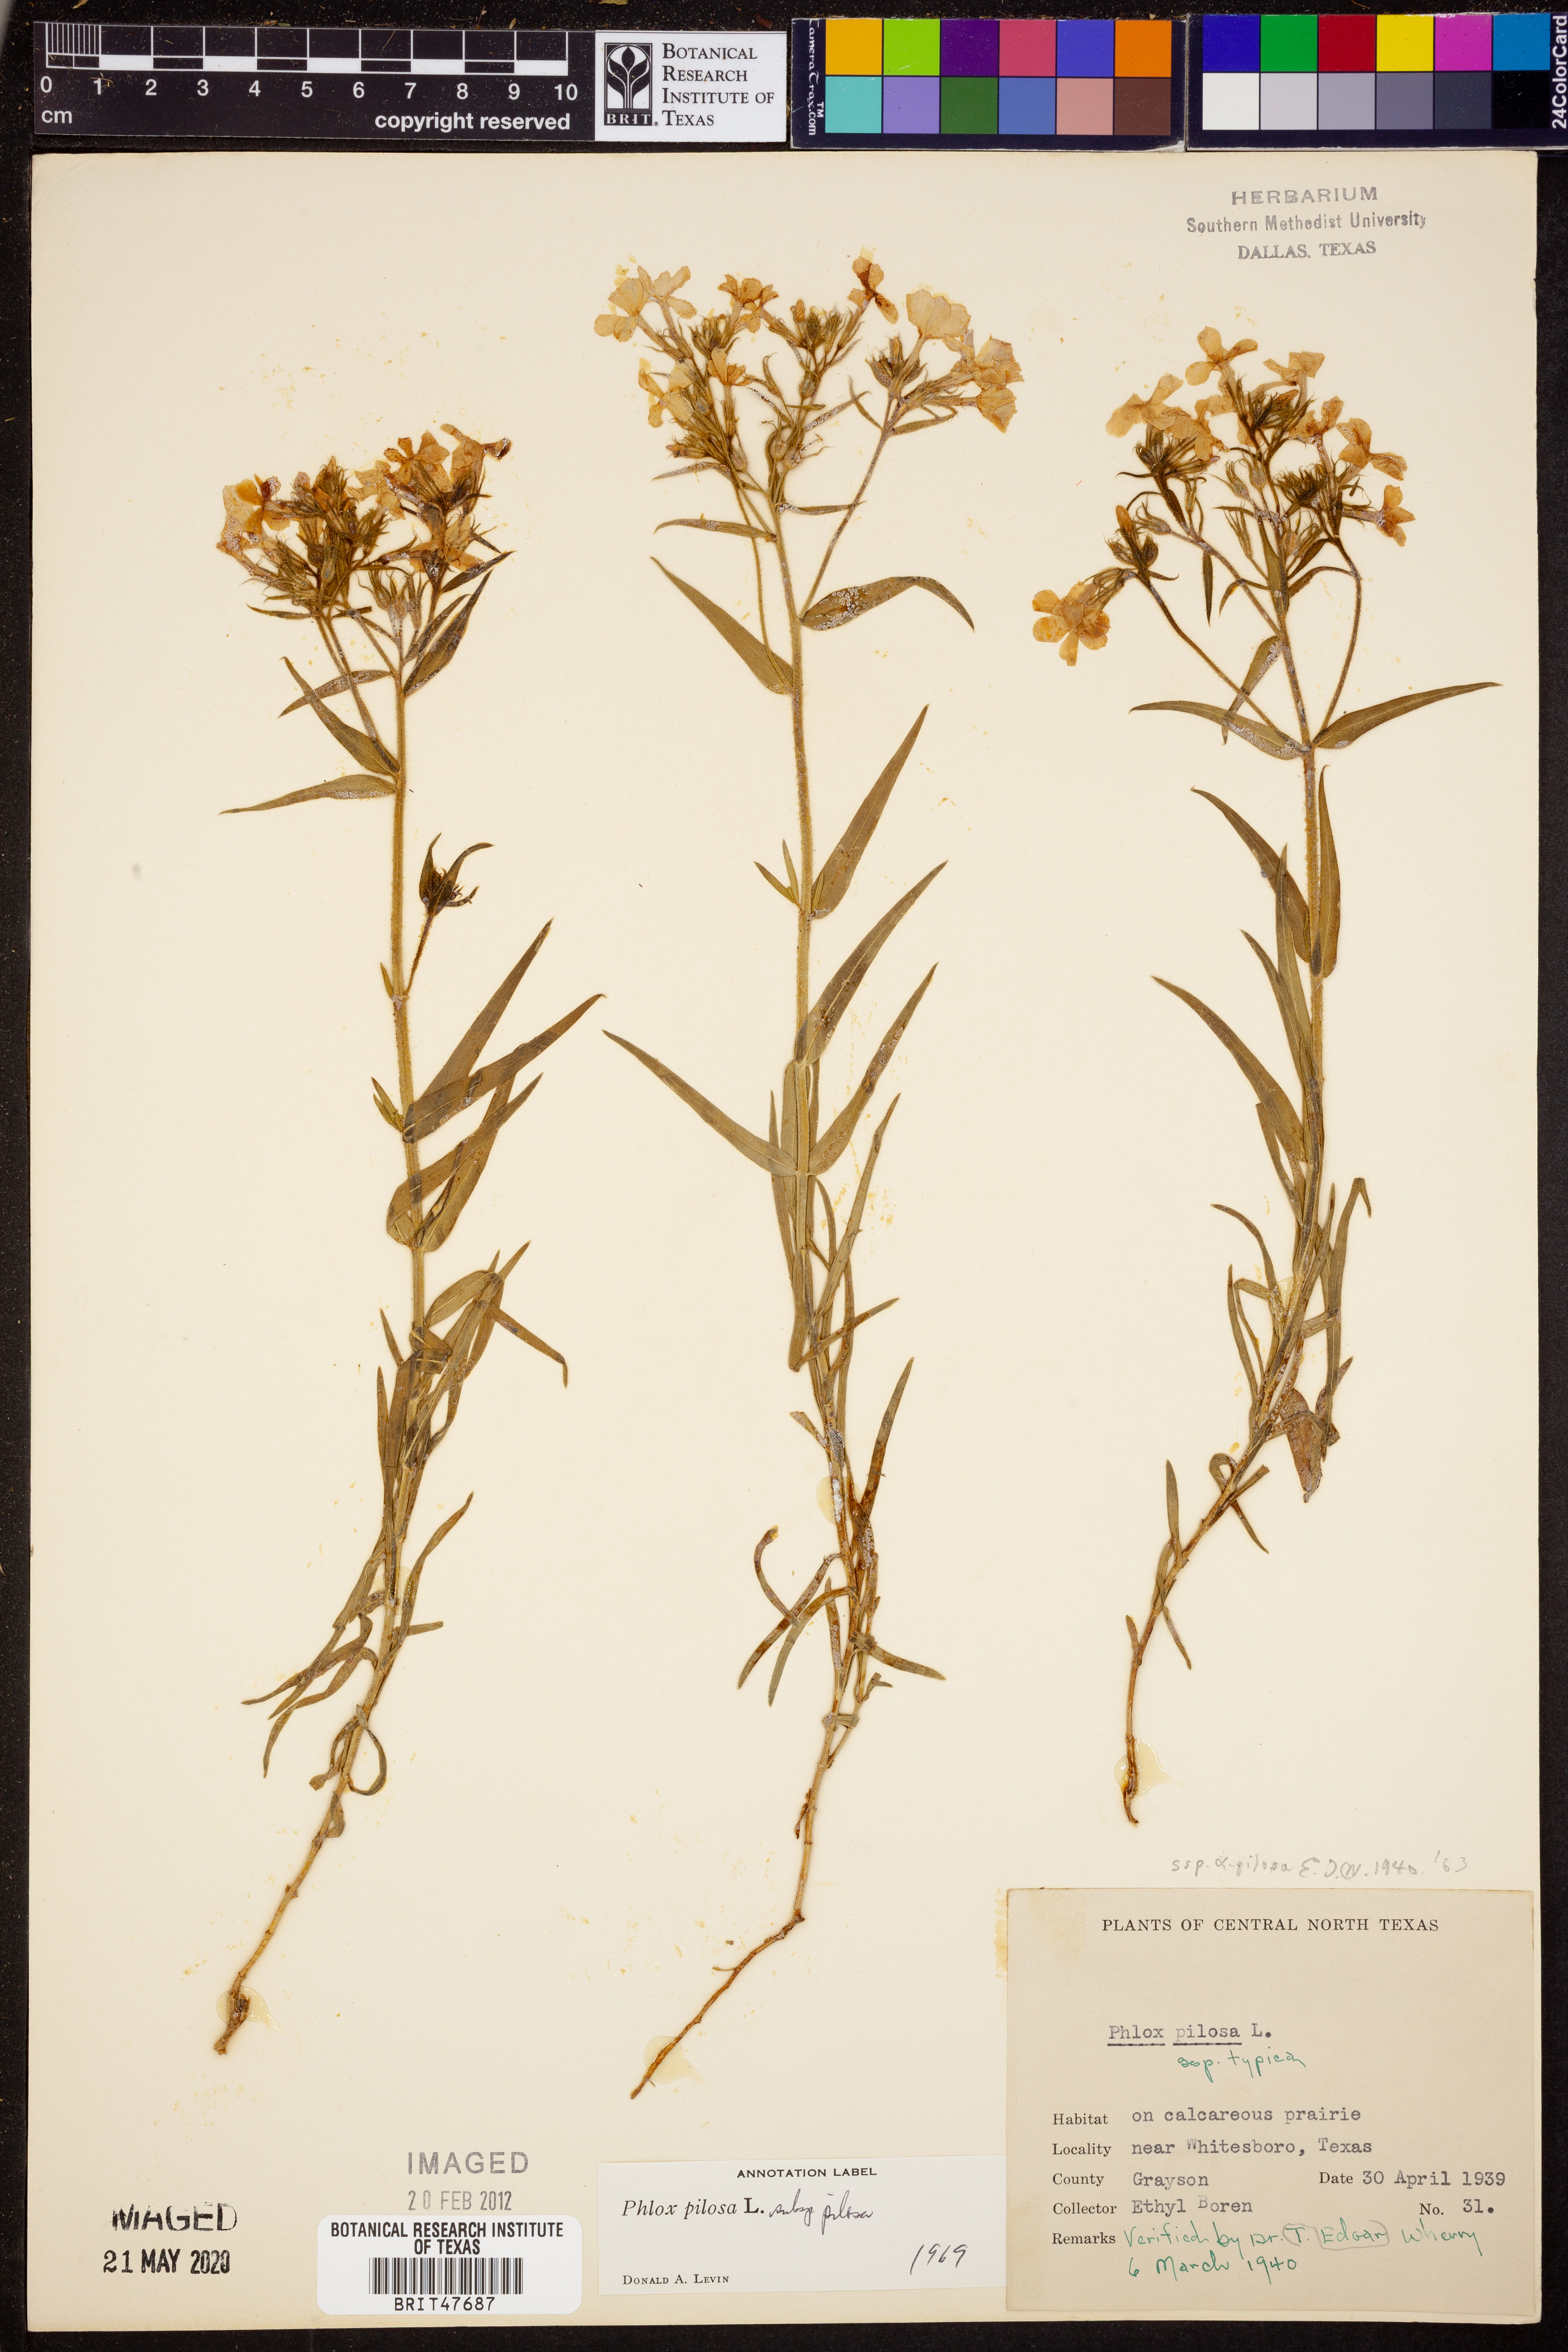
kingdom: Plantae
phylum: Tracheophyta
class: Magnoliopsida
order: Ericales
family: Polemoniaceae
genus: Phlox
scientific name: Phlox pilosa
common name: Prairie phlox
